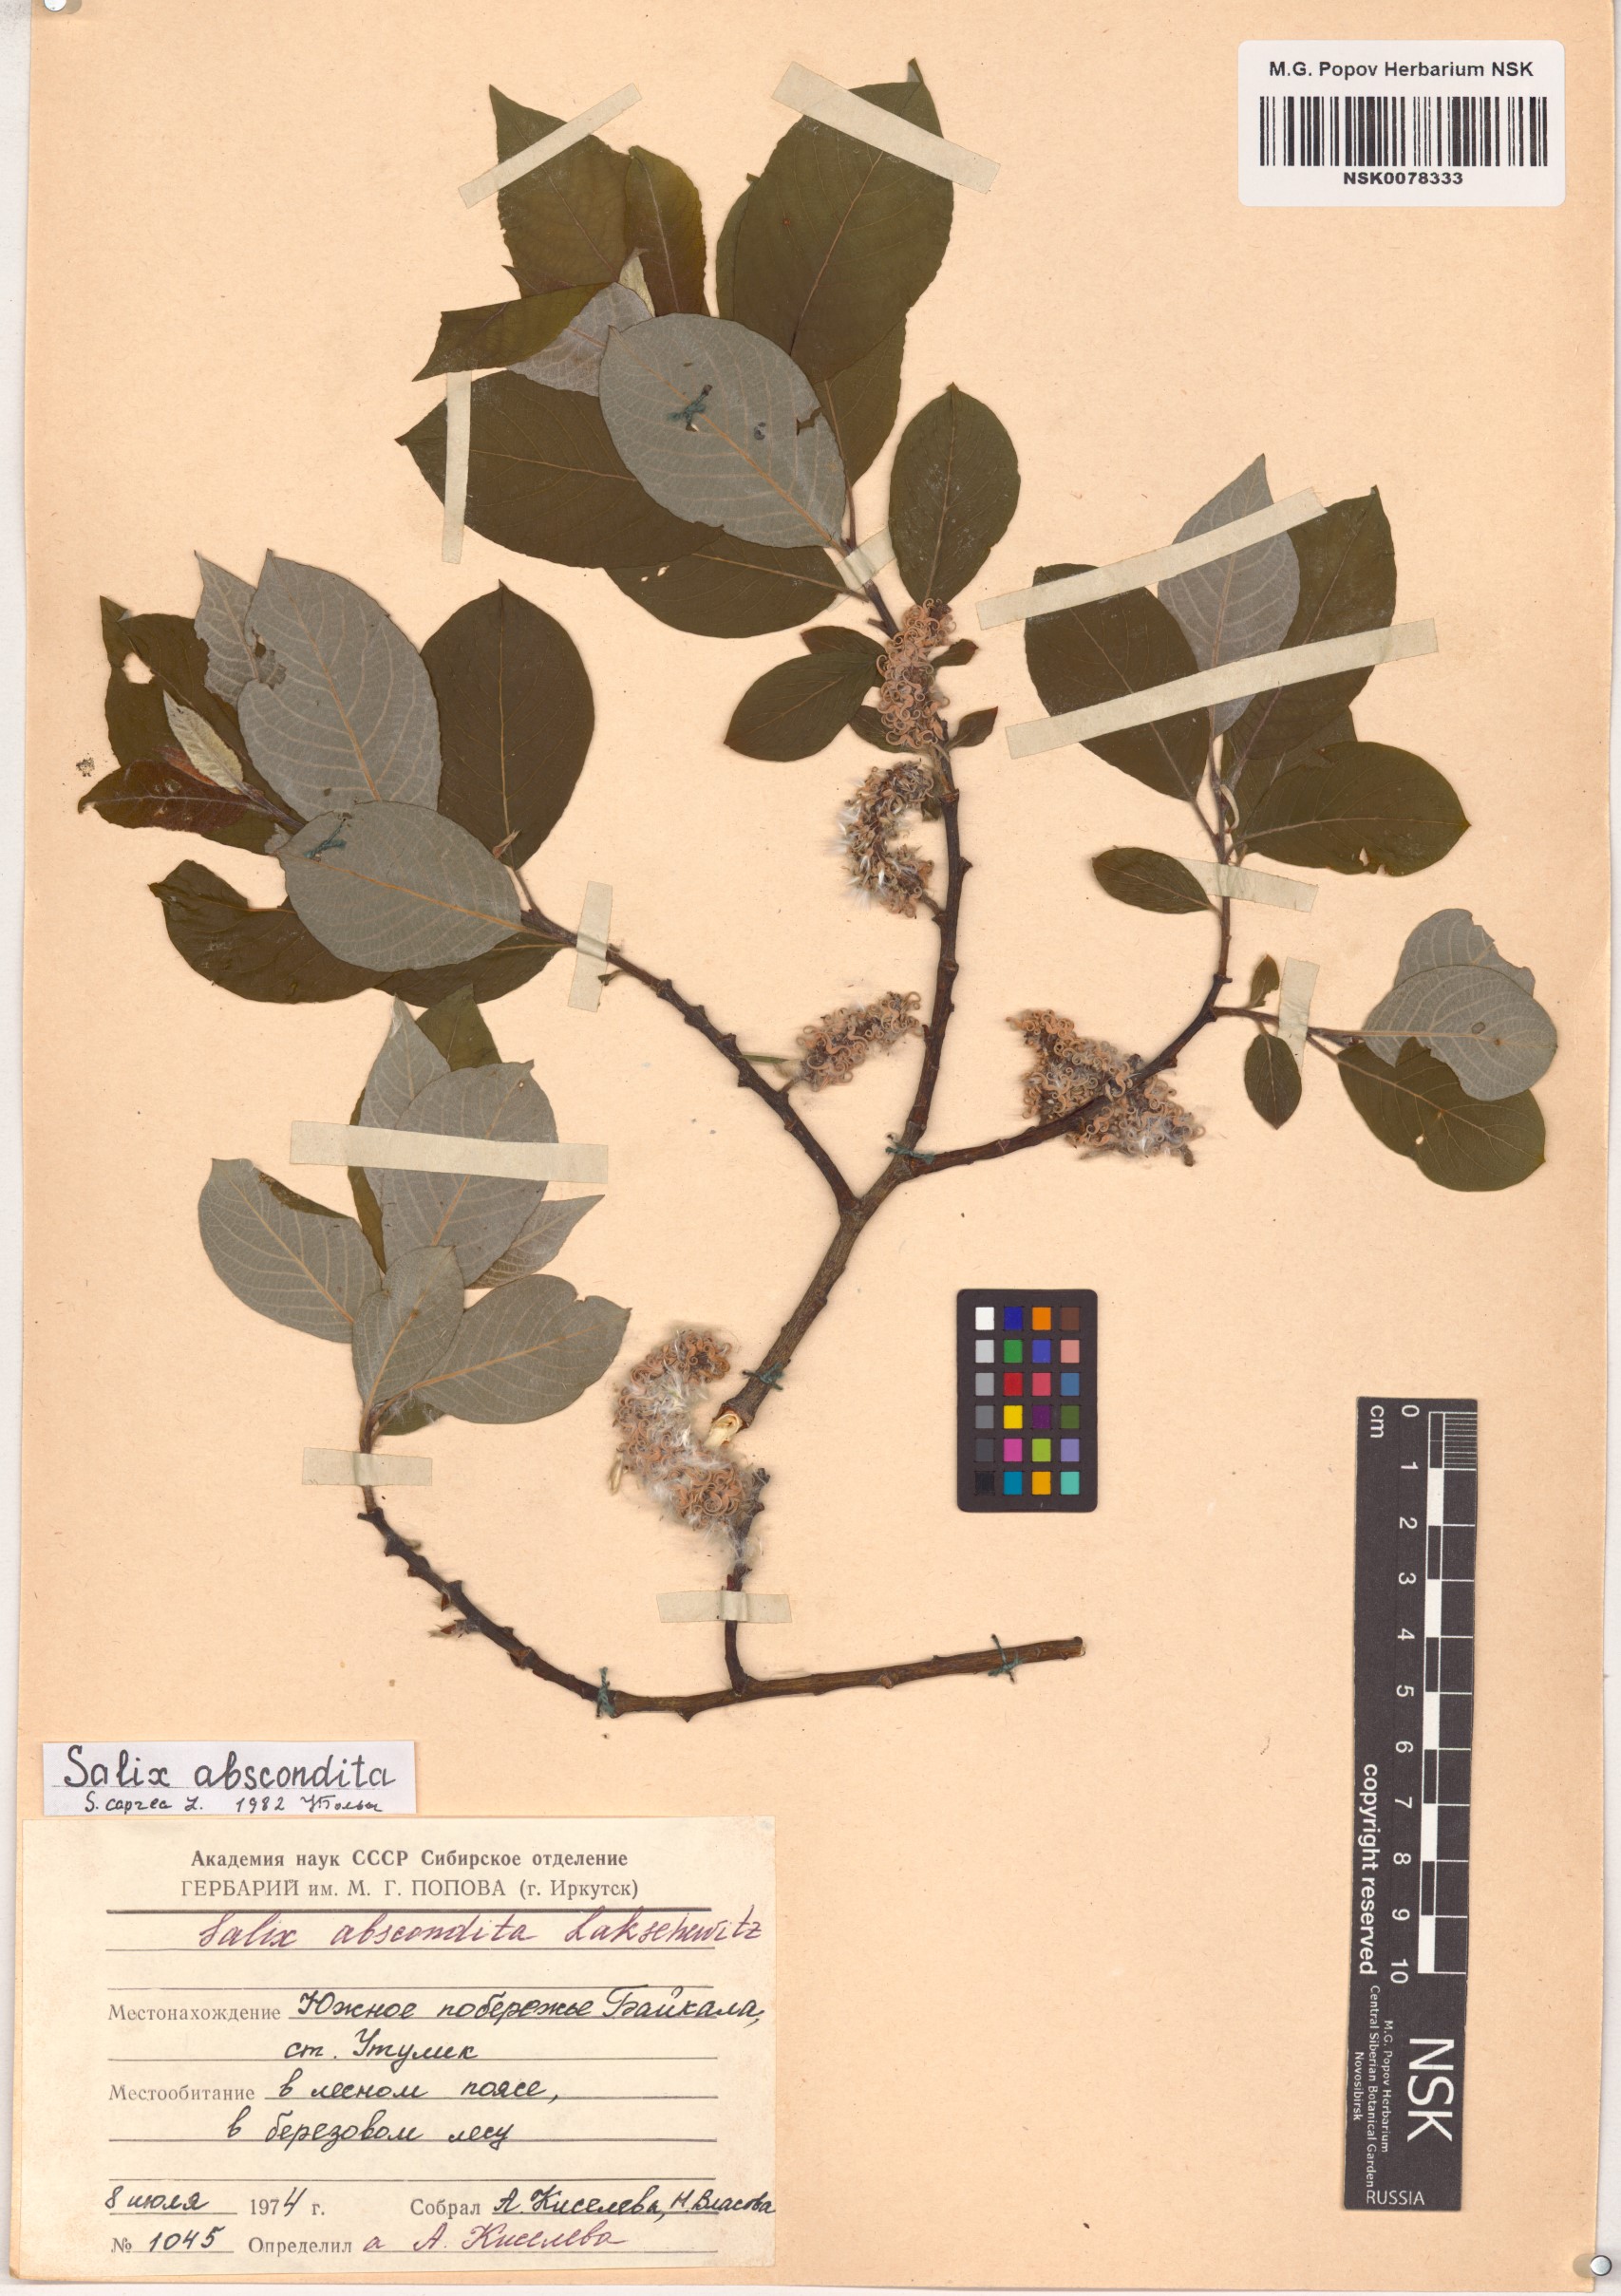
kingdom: Plantae
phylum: Tracheophyta
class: Magnoliopsida
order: Malpighiales
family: Salicaceae
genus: Salix
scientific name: Salix caprea
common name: Goat willow
